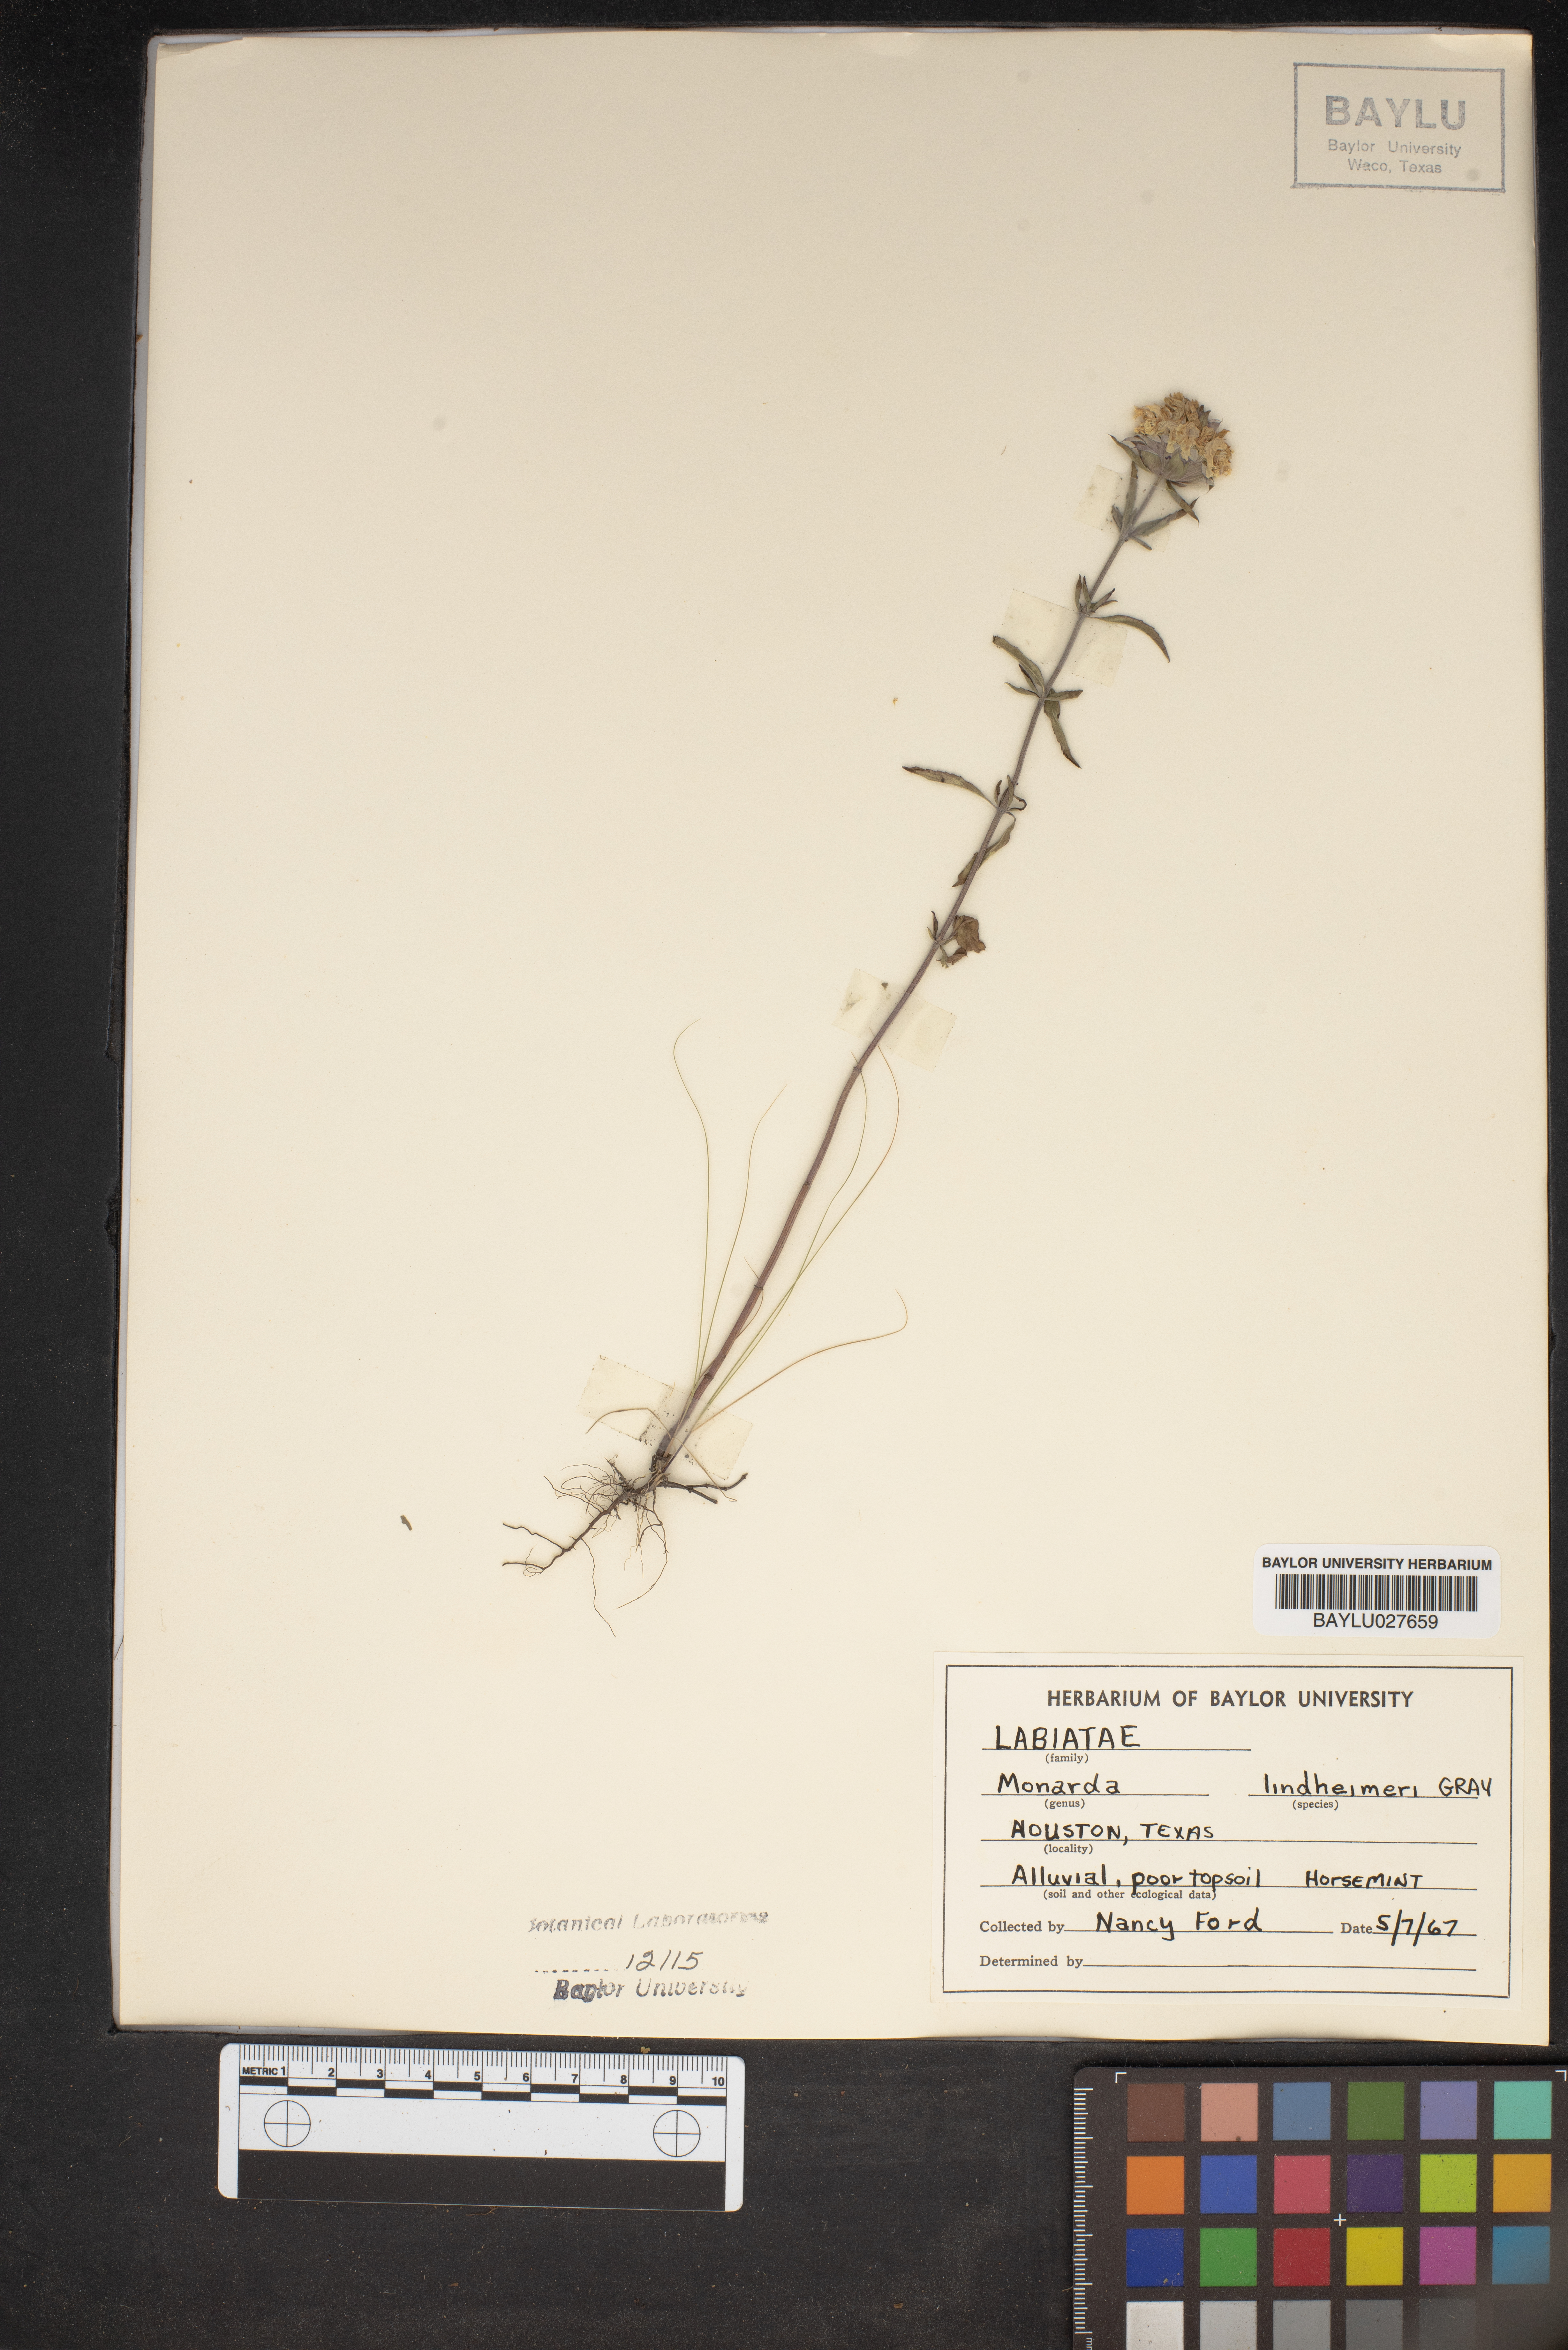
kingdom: Plantae
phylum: Tracheophyta
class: Magnoliopsida
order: Lamiales
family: Lamiaceae
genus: Monarda
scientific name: Monarda lindheimeri
